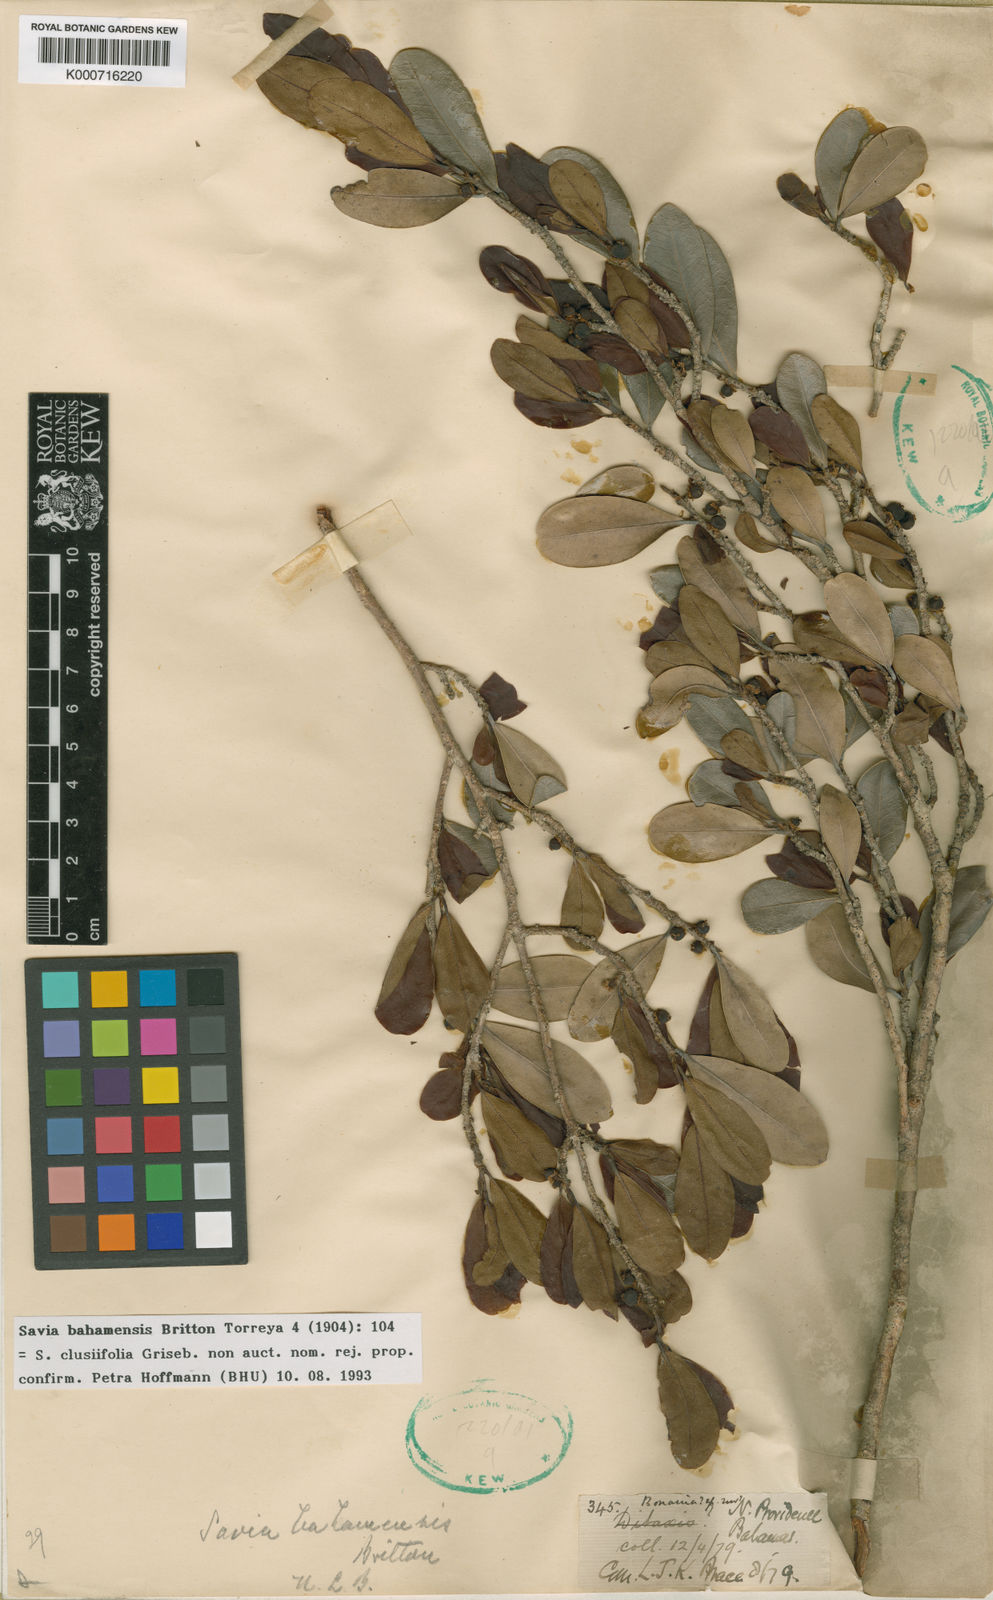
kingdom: Plantae
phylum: Tracheophyta
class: Magnoliopsida
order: Malpighiales
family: Phyllanthaceae
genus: Heterosavia
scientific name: Heterosavia bahamensis
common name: Bahama maidenbush
